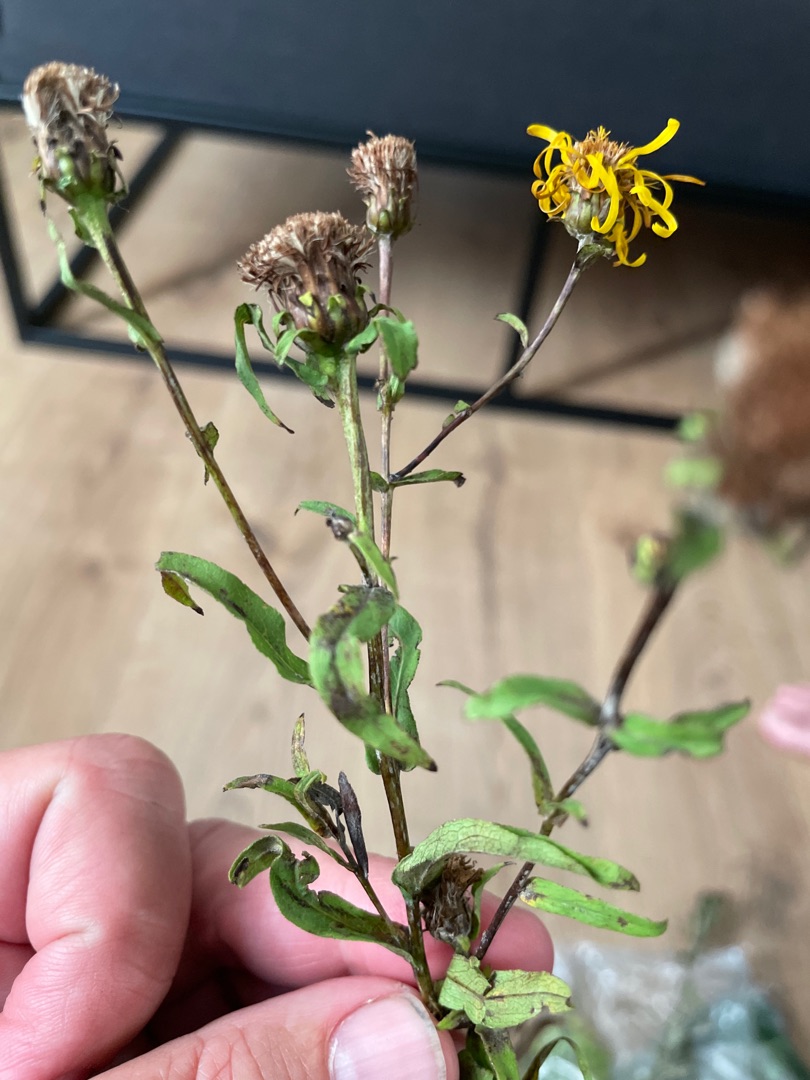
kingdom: Plantae
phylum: Tracheophyta
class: Magnoliopsida
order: Asterales
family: Asteraceae
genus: Pentanema
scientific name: Pentanema salicinum
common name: Pile-alant
